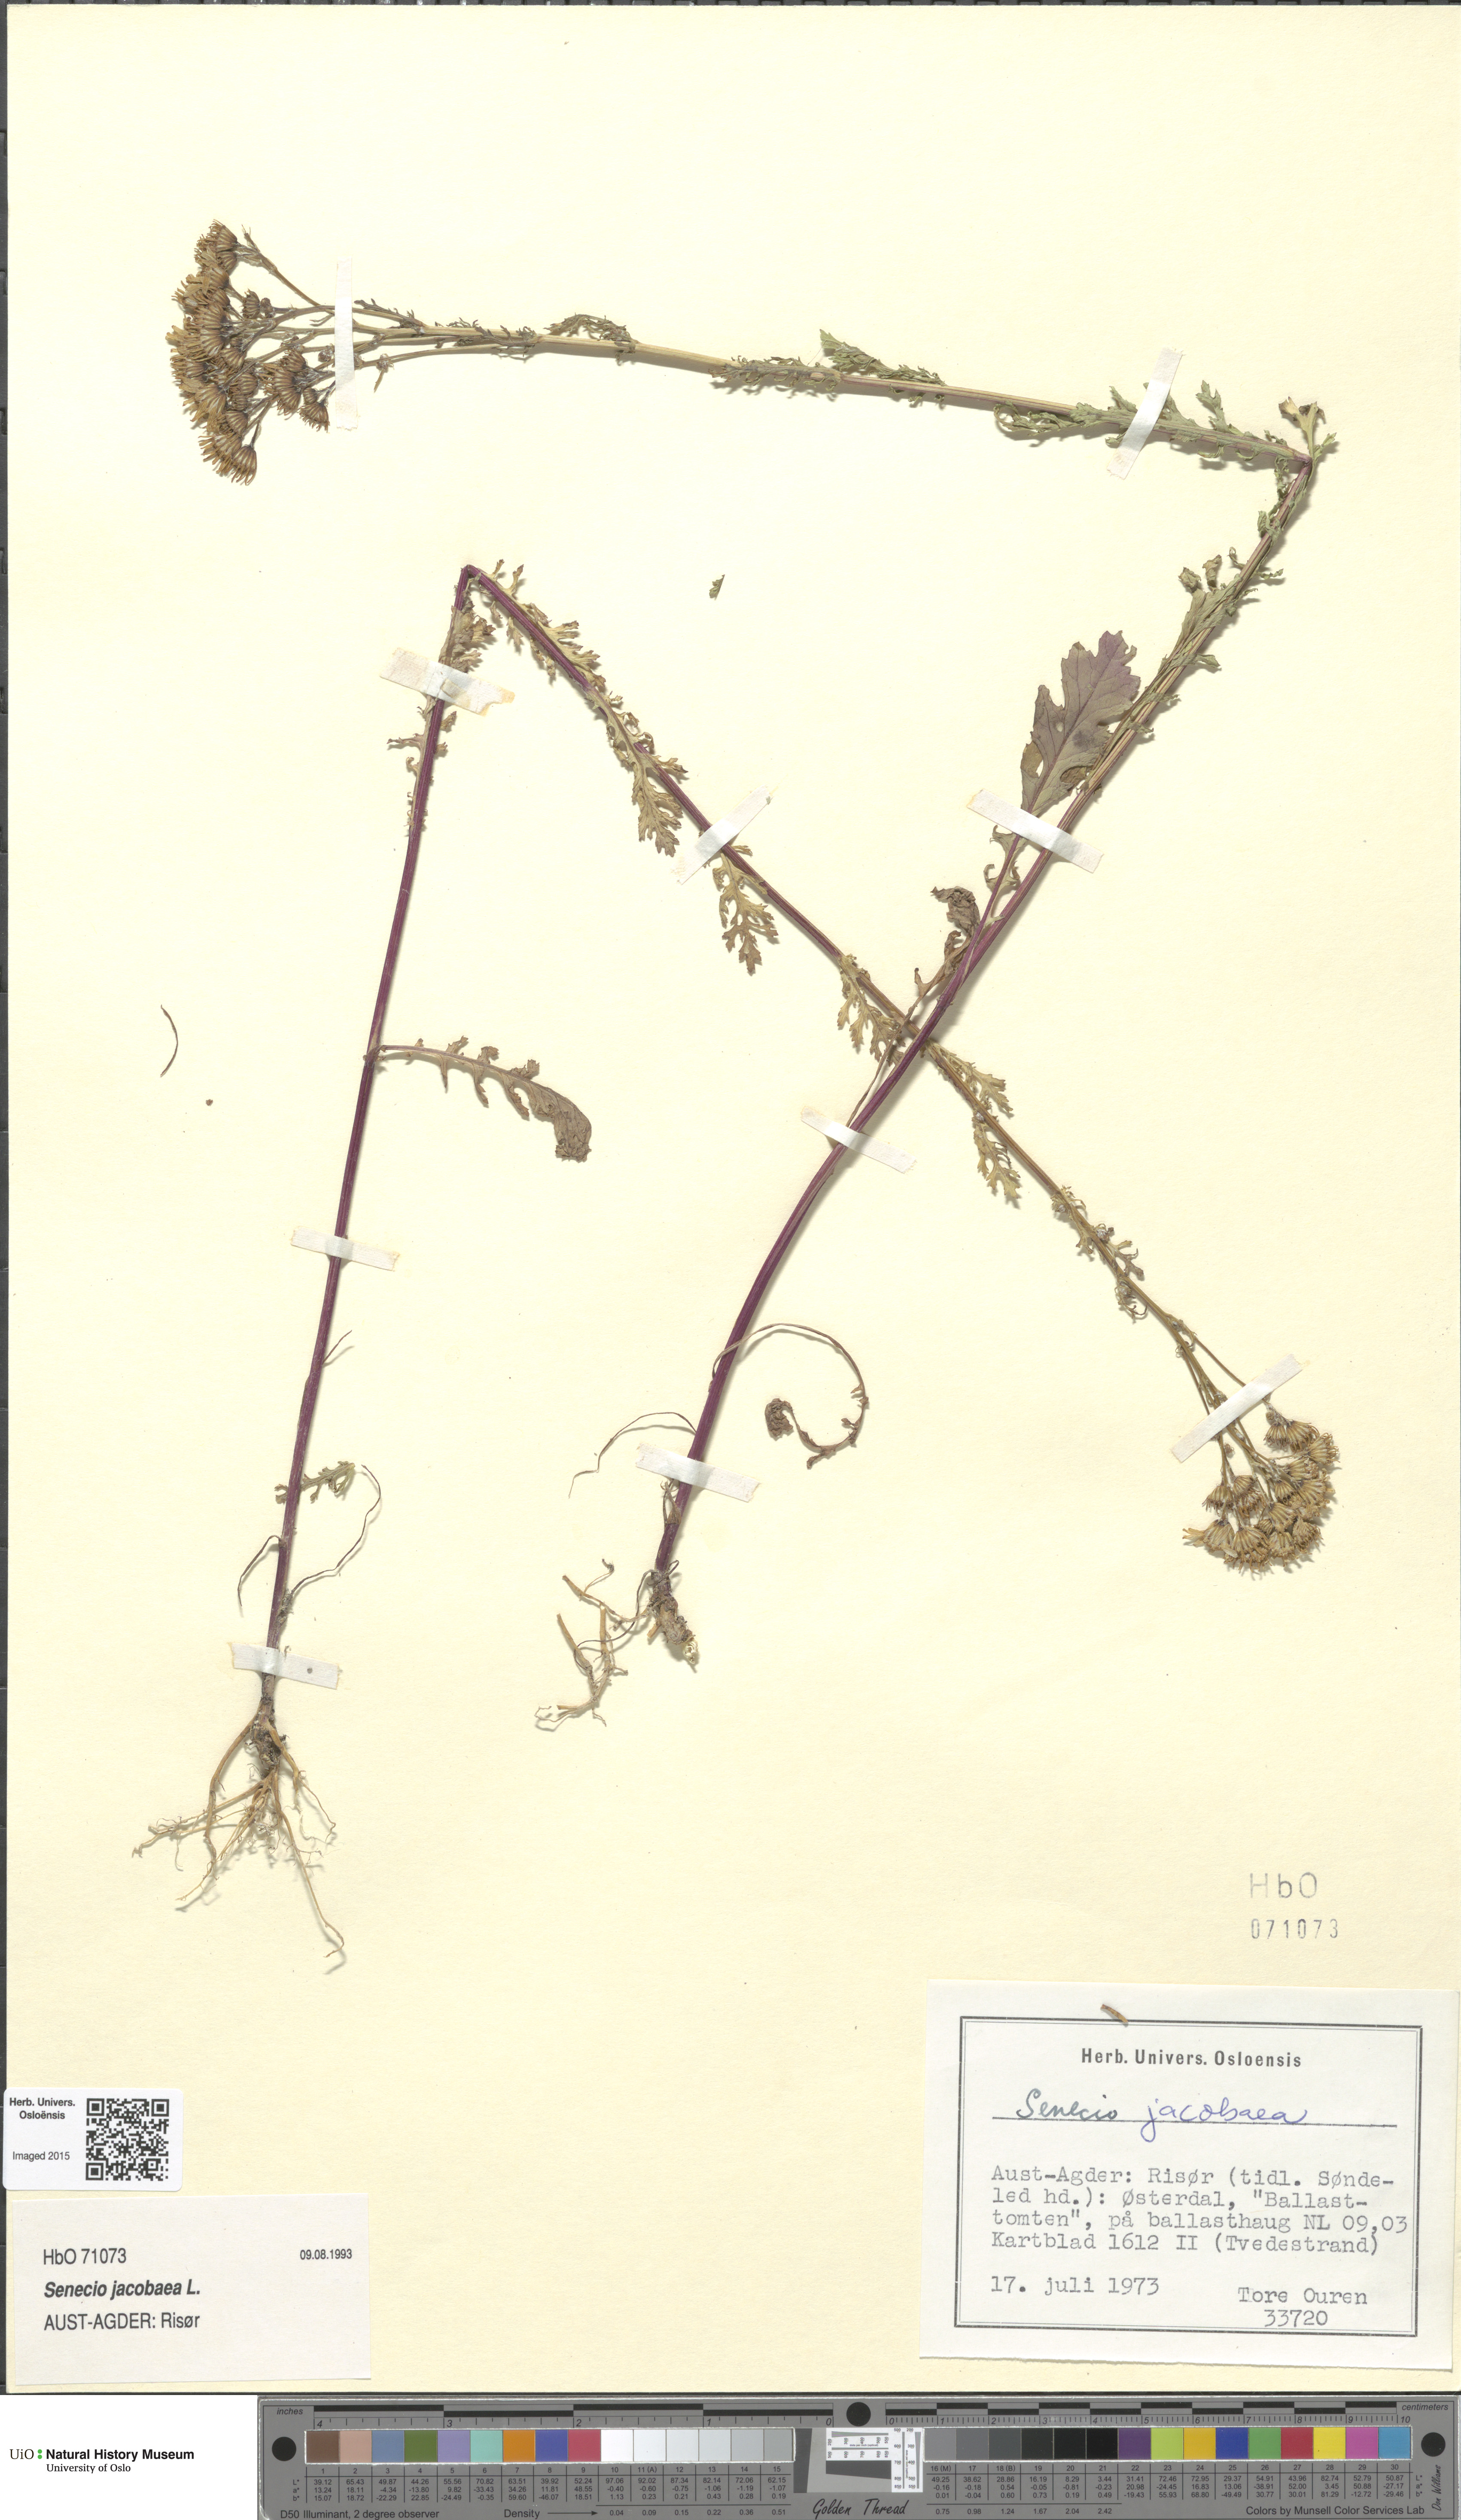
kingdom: Plantae
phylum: Tracheophyta
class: Magnoliopsida
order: Asterales
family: Asteraceae
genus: Jacobaea
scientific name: Jacobaea vulgaris
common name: Stinking willie
